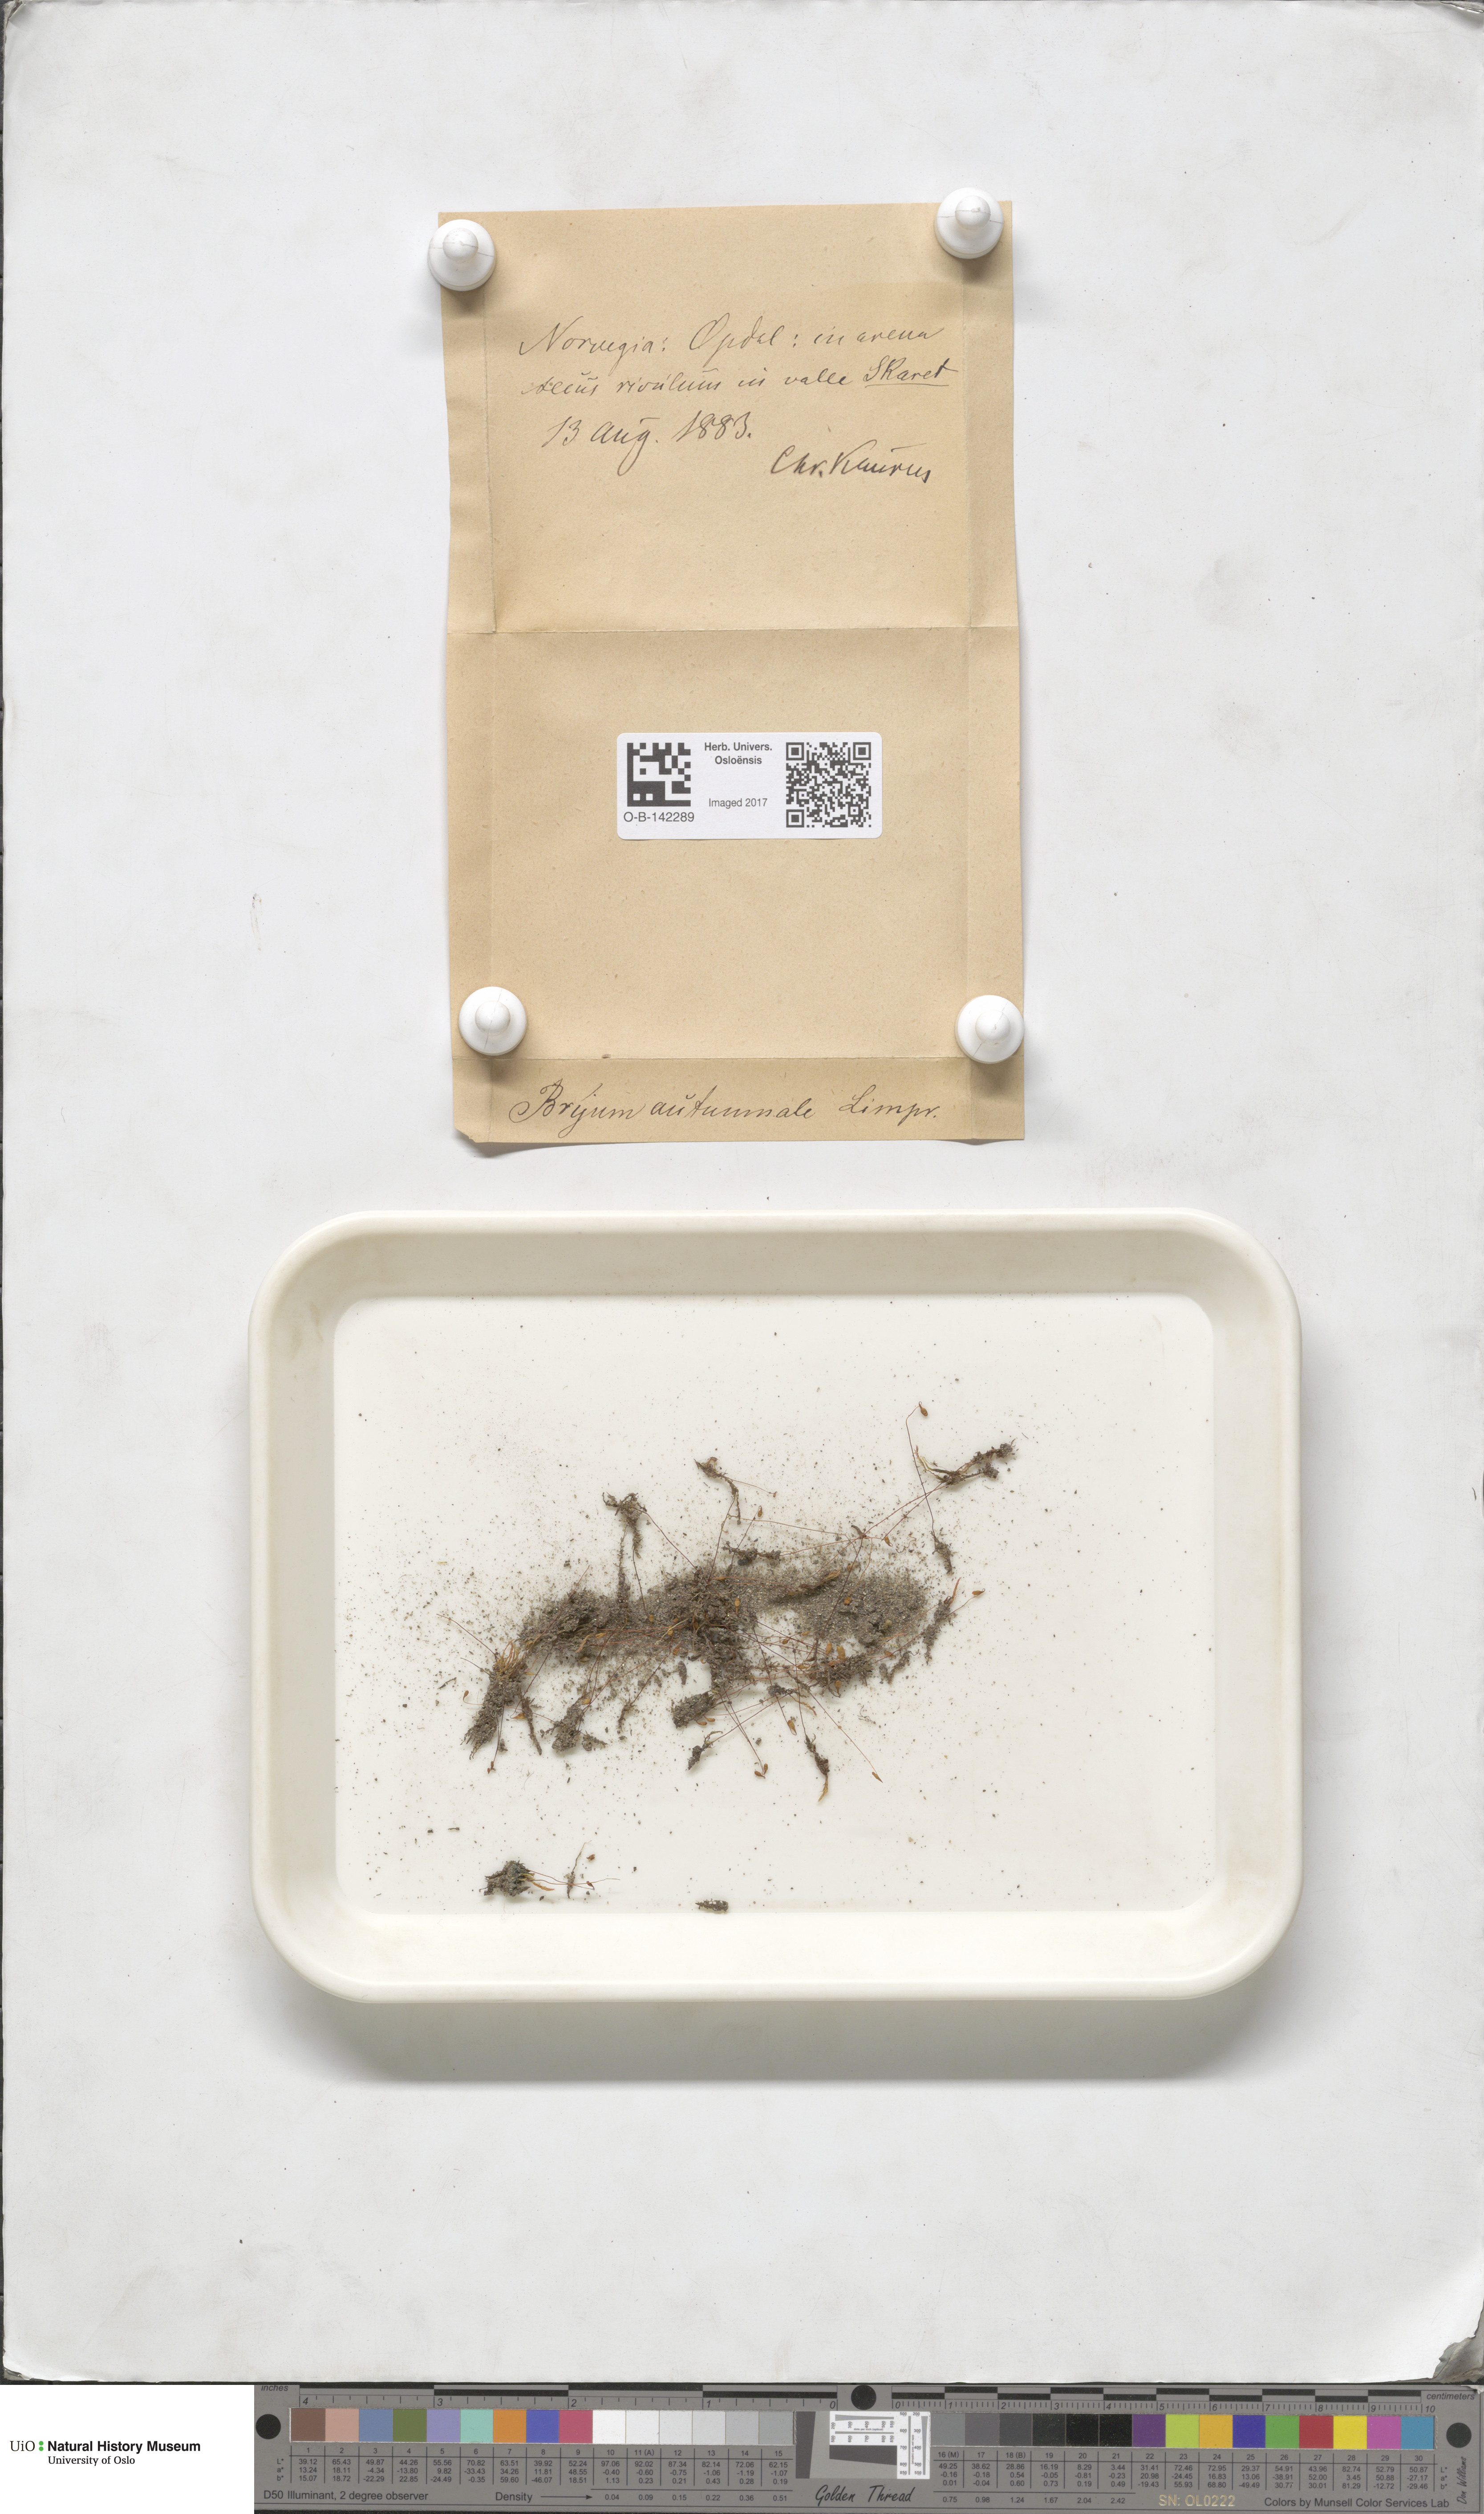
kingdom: Plantae
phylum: Bryophyta
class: Bryopsida
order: Bryales
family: Bryaceae
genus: Ptychostomum
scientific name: Ptychostomum arcticum
